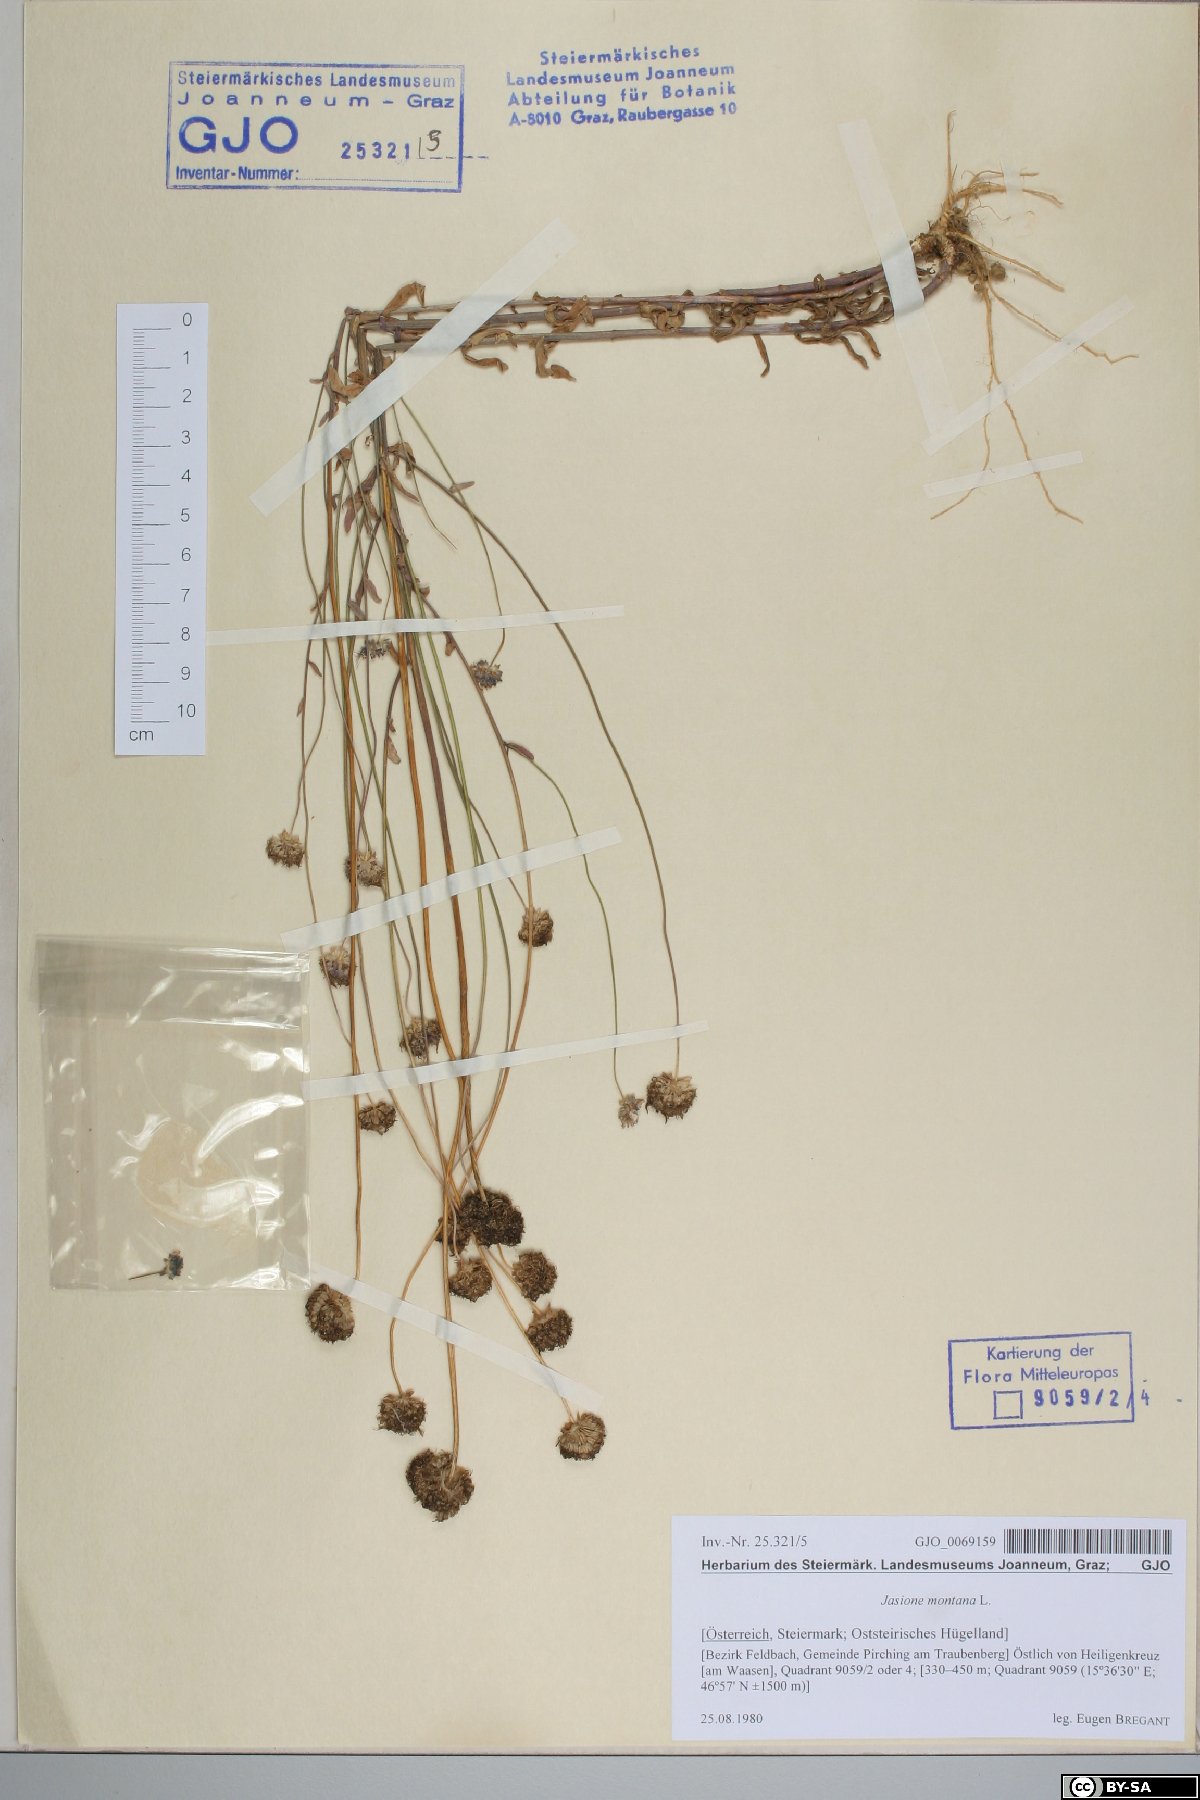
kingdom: Plantae
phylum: Tracheophyta
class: Magnoliopsida
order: Asterales
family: Campanulaceae
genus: Jasione
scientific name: Jasione montana
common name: Sheep's-bit
